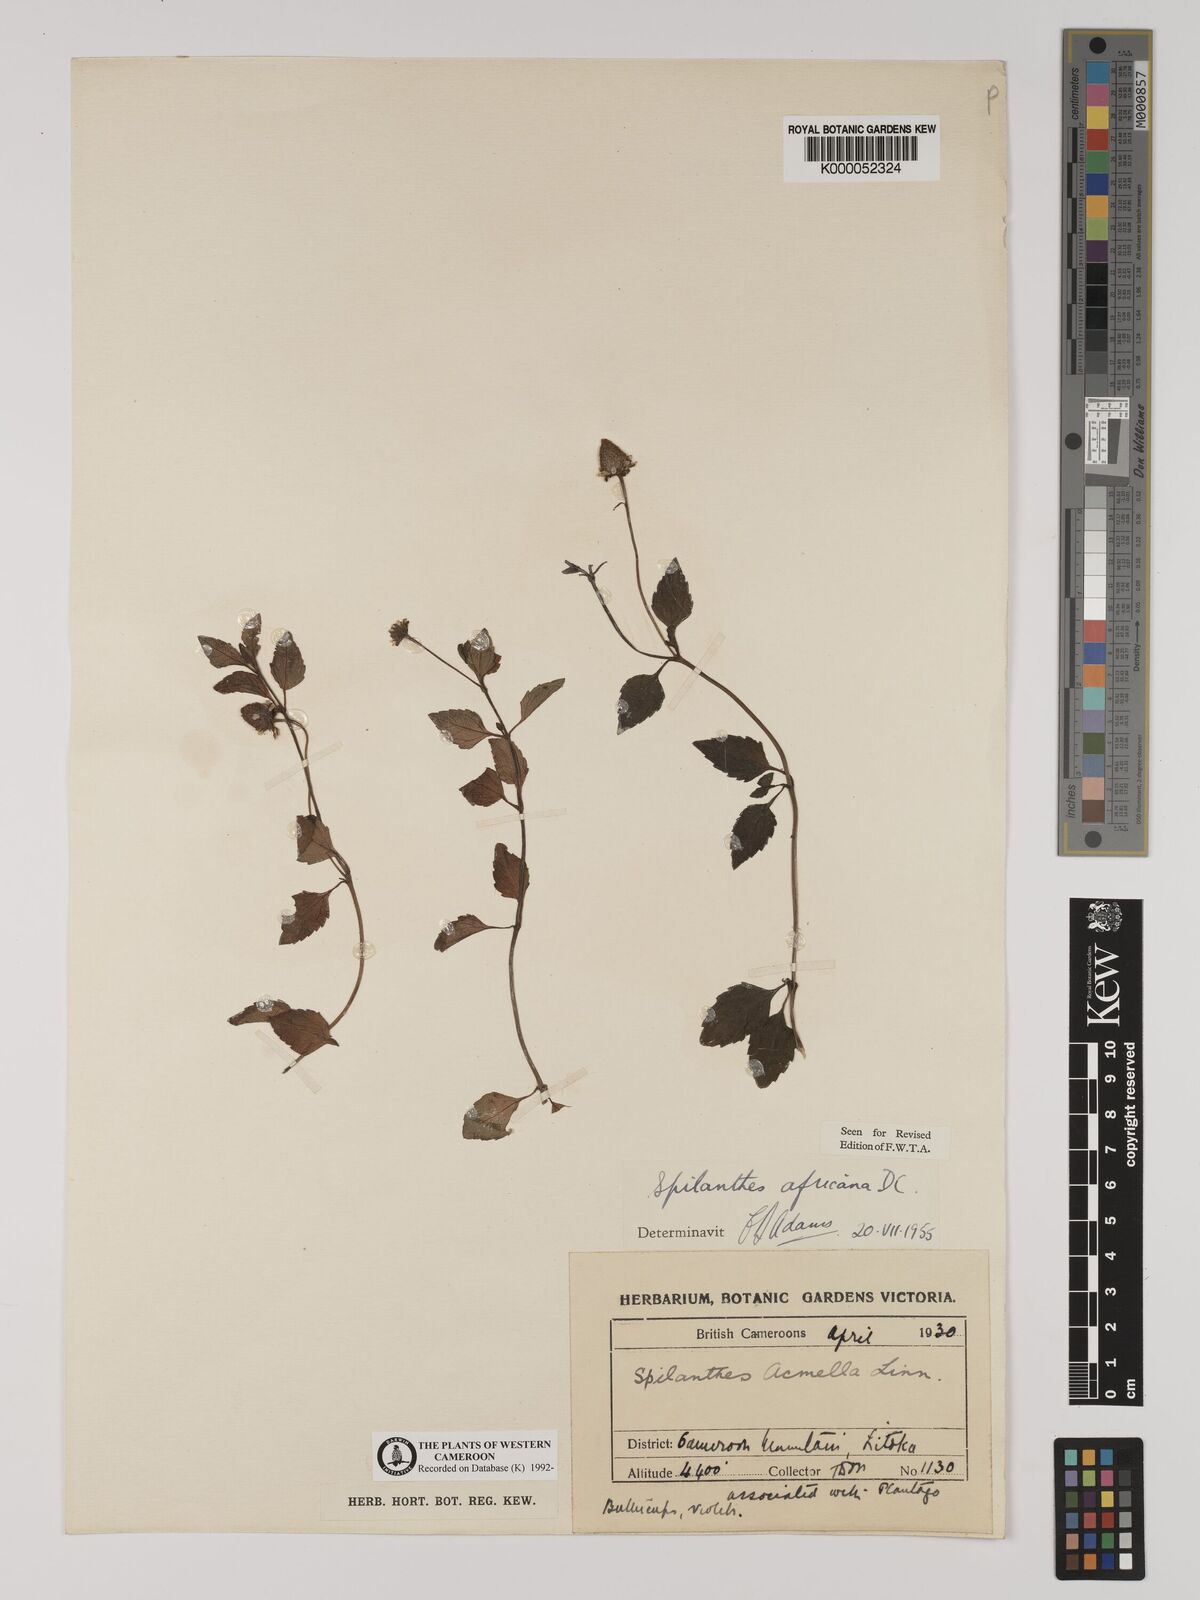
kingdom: Plantae
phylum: Tracheophyta
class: Magnoliopsida
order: Asterales
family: Asteraceae
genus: Acmella
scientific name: Acmella caulirhiza
